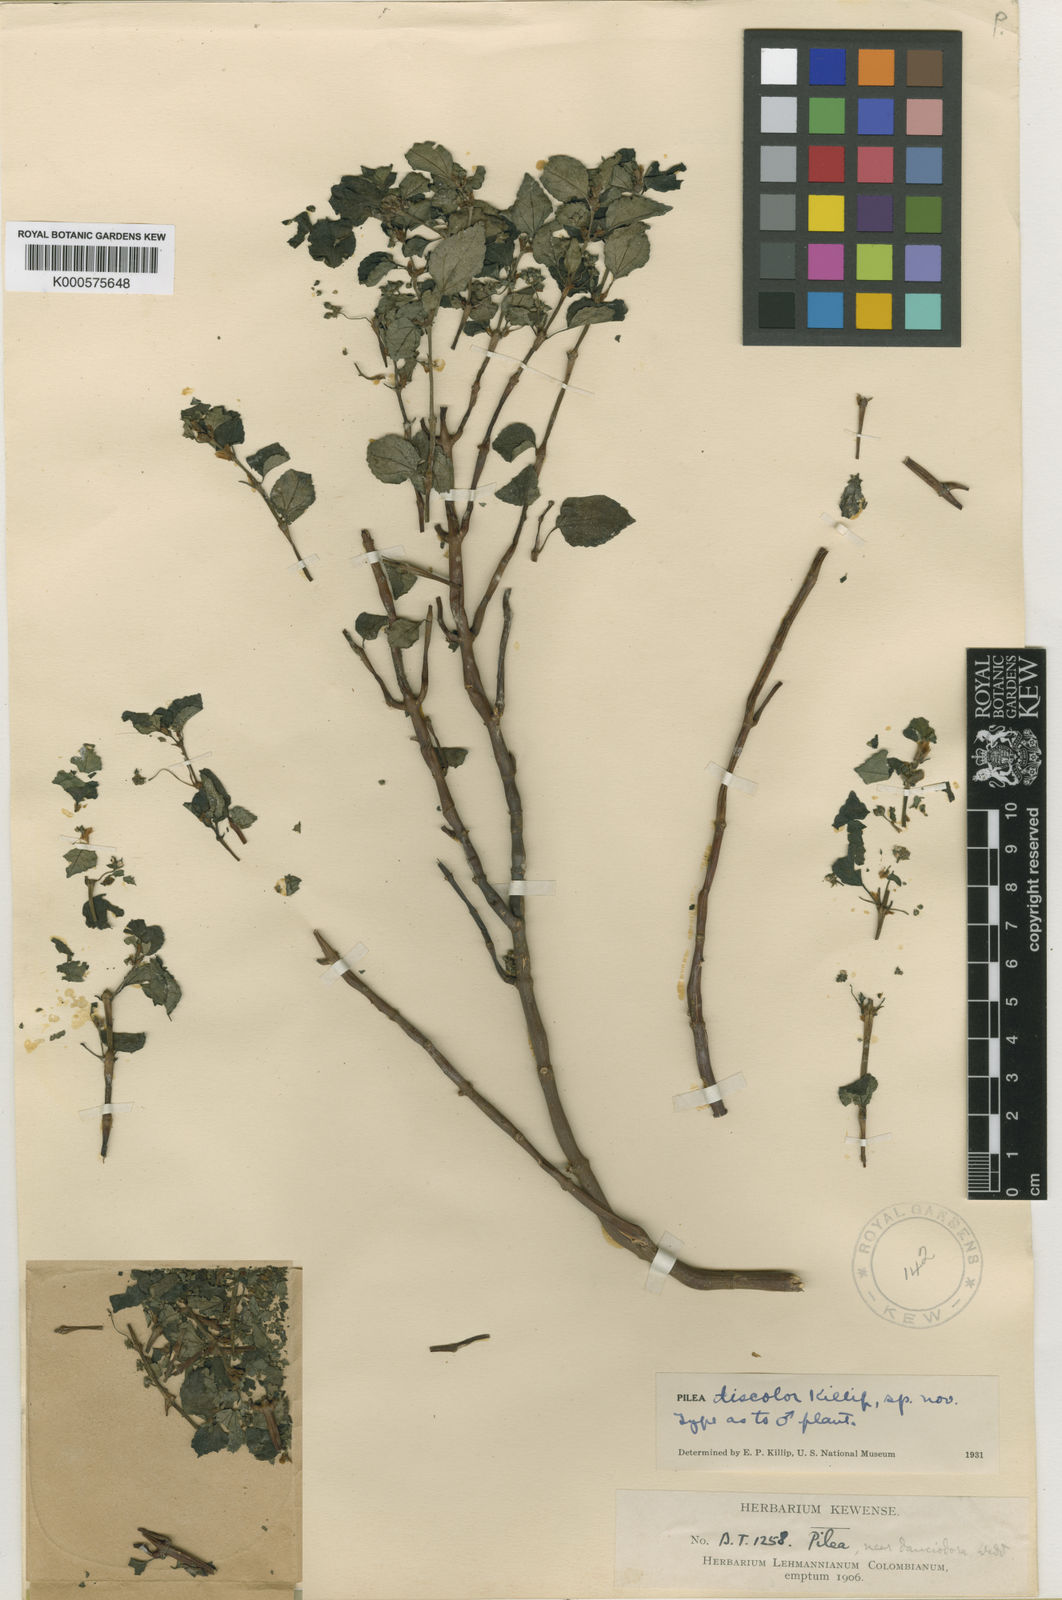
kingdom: Plantae
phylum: Tracheophyta
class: Magnoliopsida
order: Rosales
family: Urticaceae
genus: Pilea
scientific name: Pilea discolor
